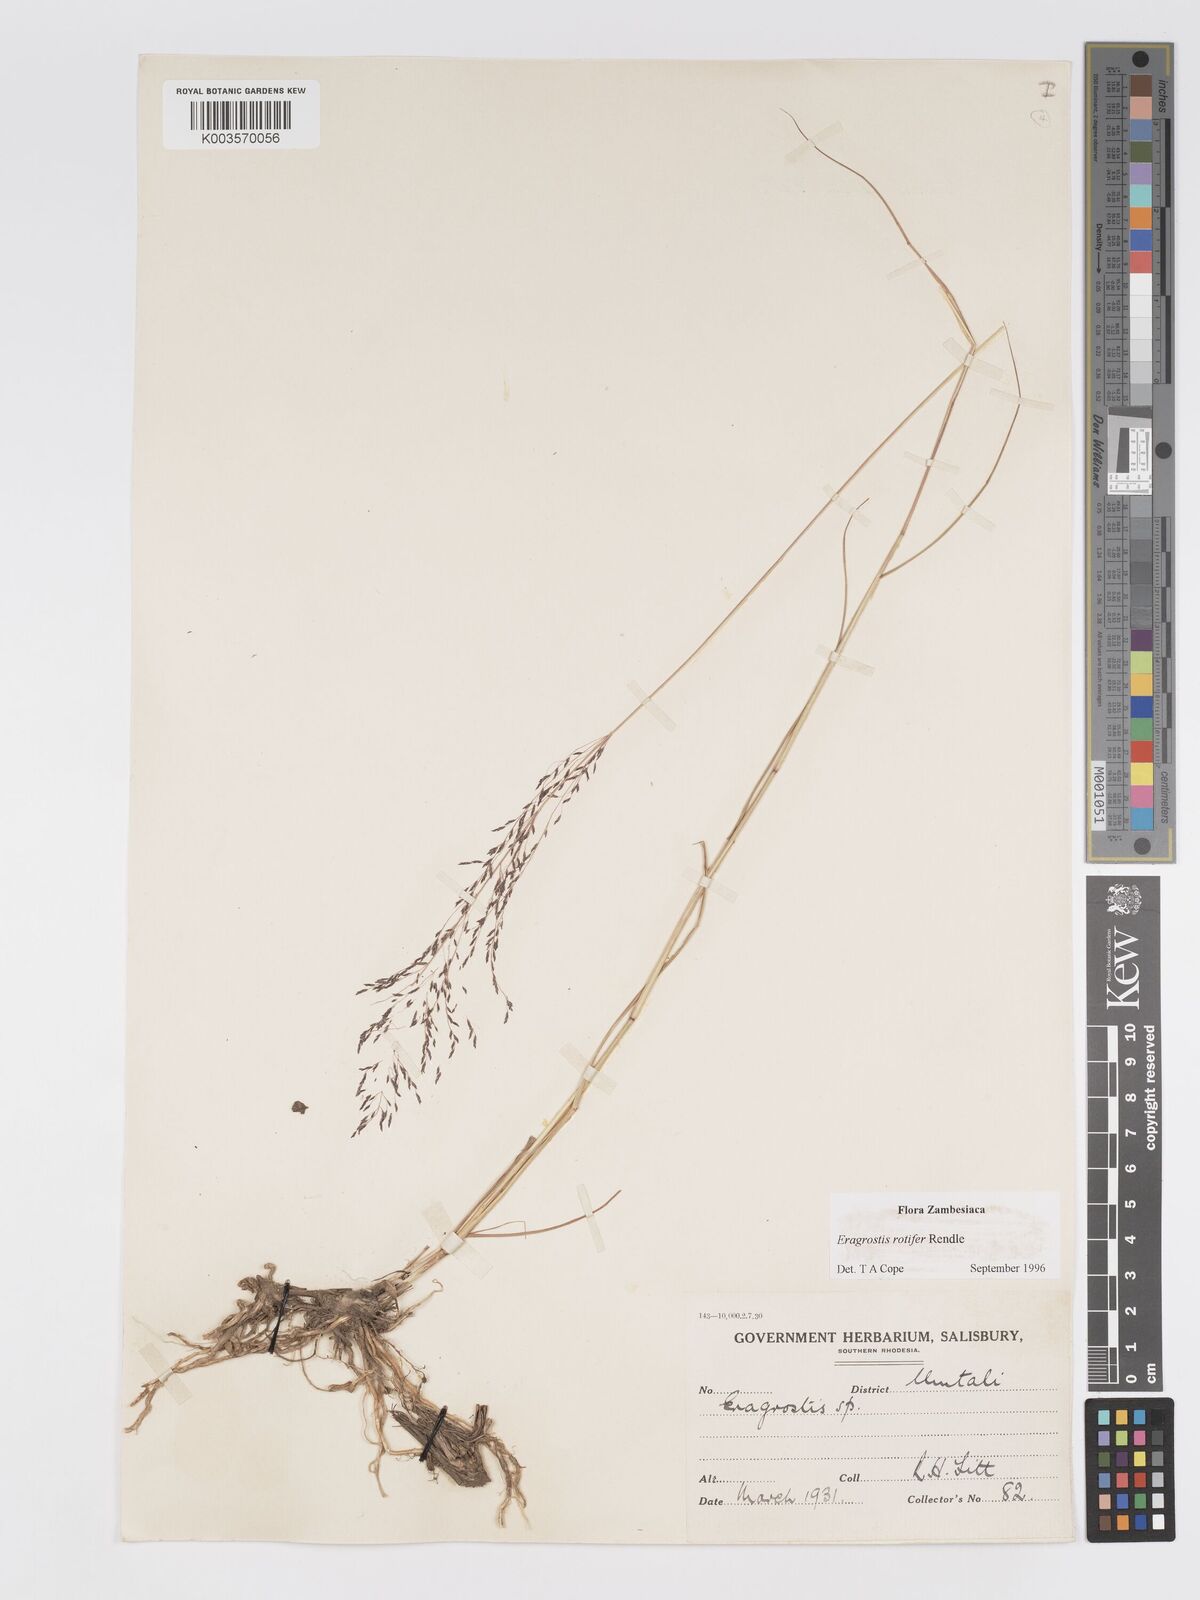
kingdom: Plantae
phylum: Tracheophyta
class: Liliopsida
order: Poales
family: Poaceae
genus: Eragrostis
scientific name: Eragrostis rotifer
